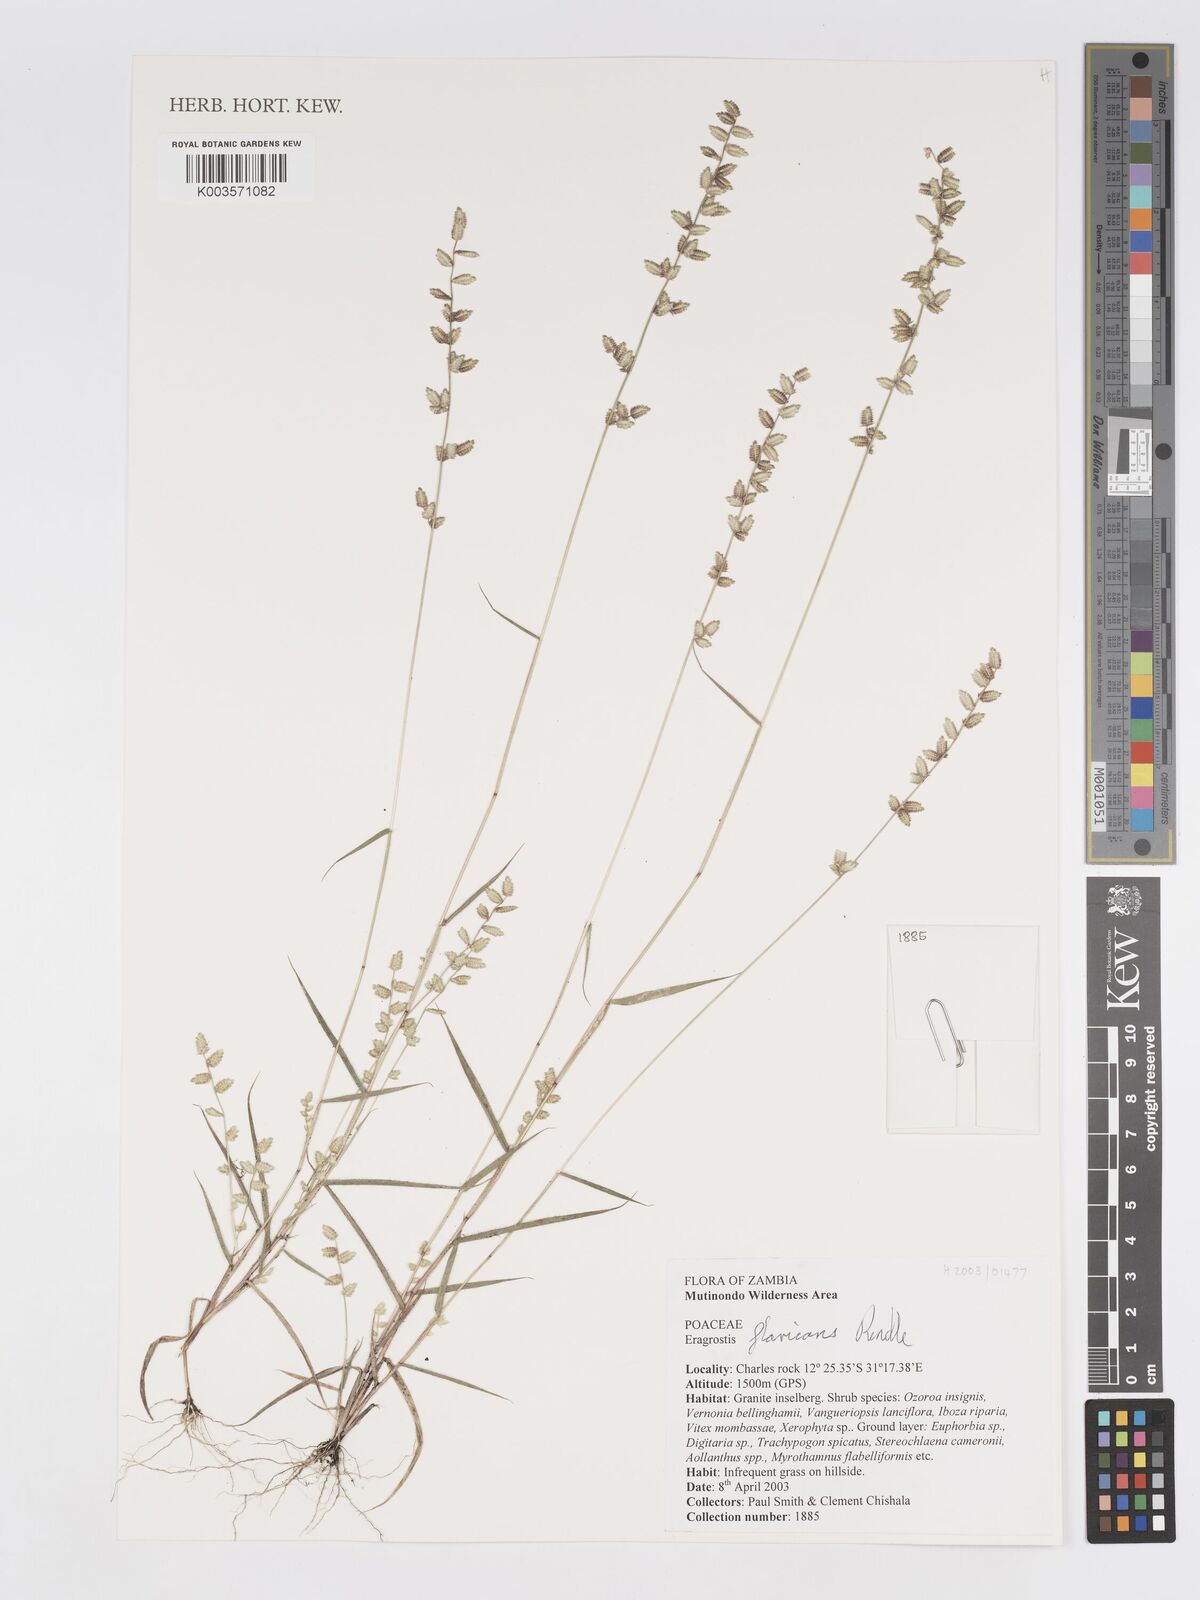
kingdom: Plantae
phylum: Tracheophyta
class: Liliopsida
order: Poales
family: Poaceae
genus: Eragrostis
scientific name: Eragrostis flavicans
